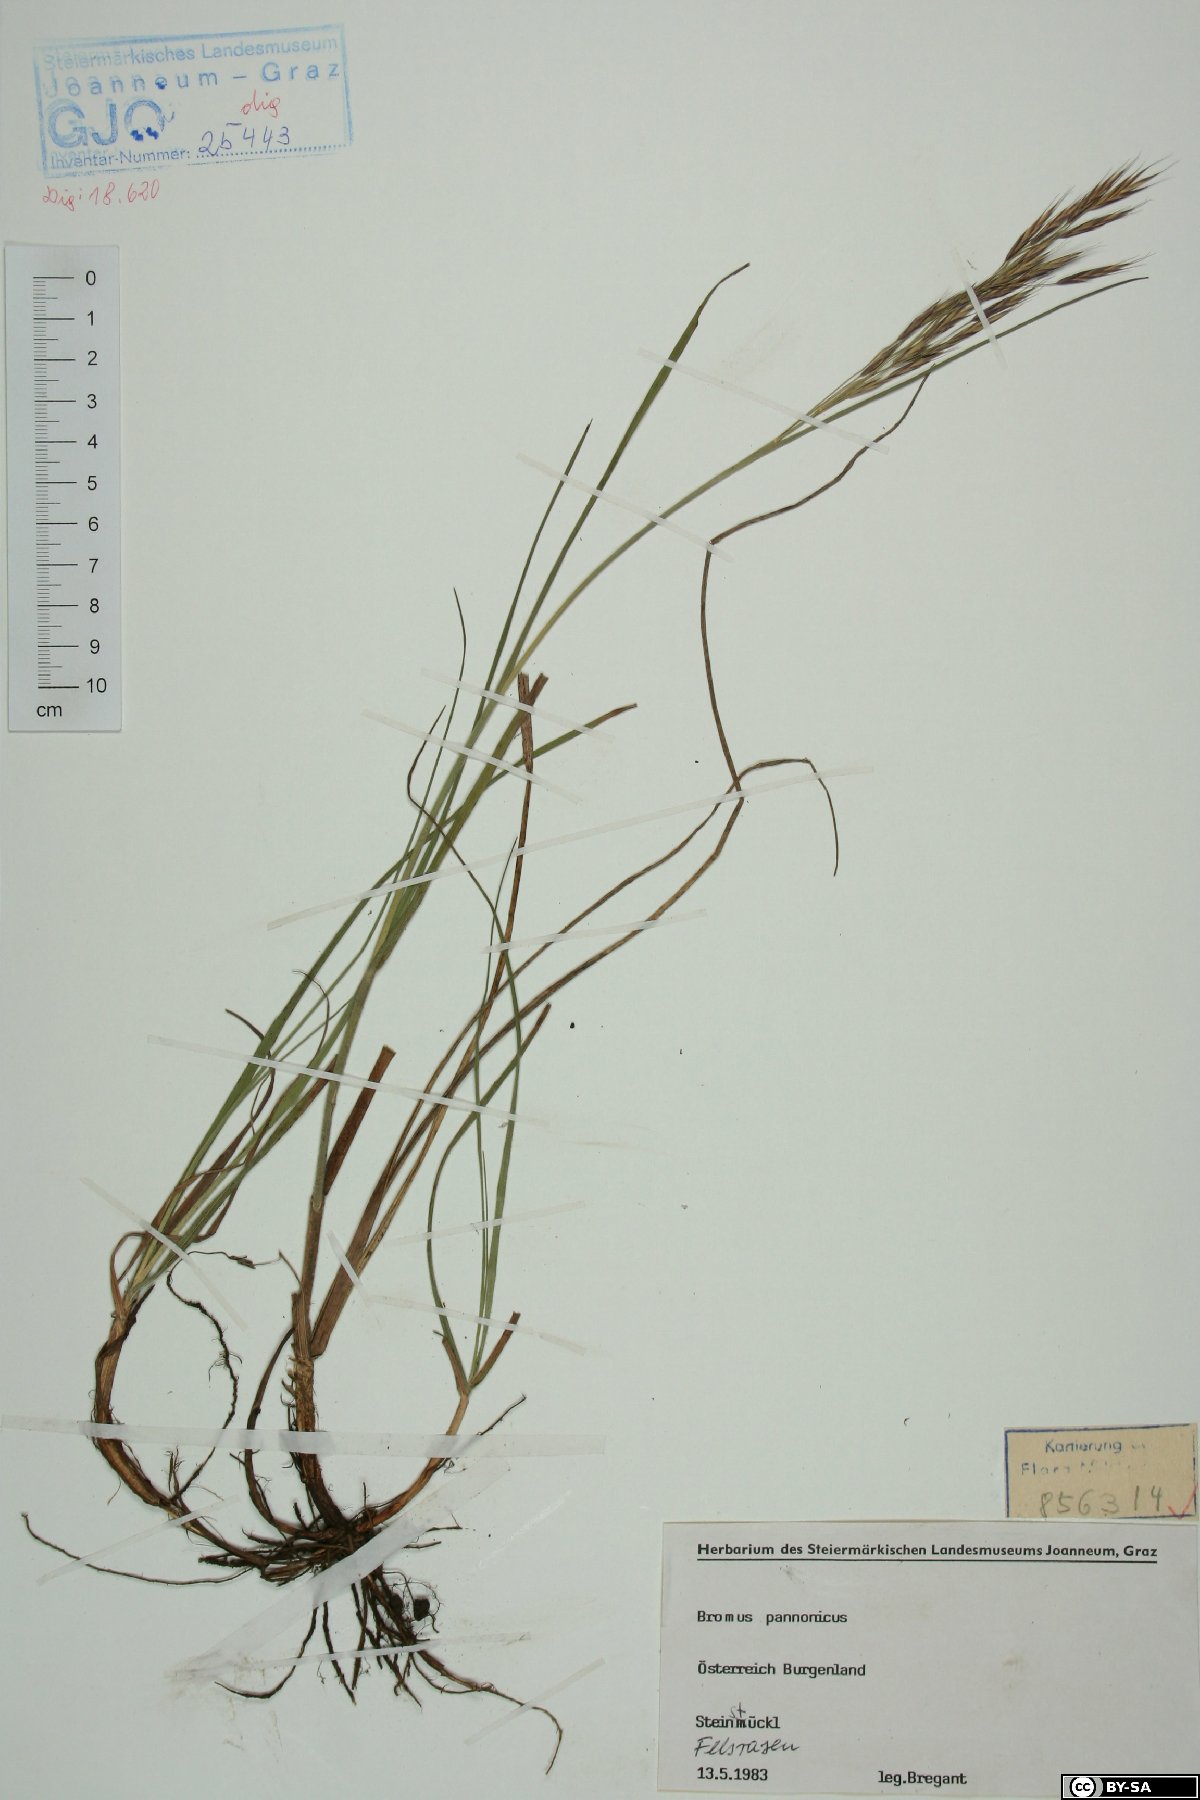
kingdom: Plantae
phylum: Tracheophyta
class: Liliopsida
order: Poales
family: Poaceae
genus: Bromus
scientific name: Bromus pannonicus
